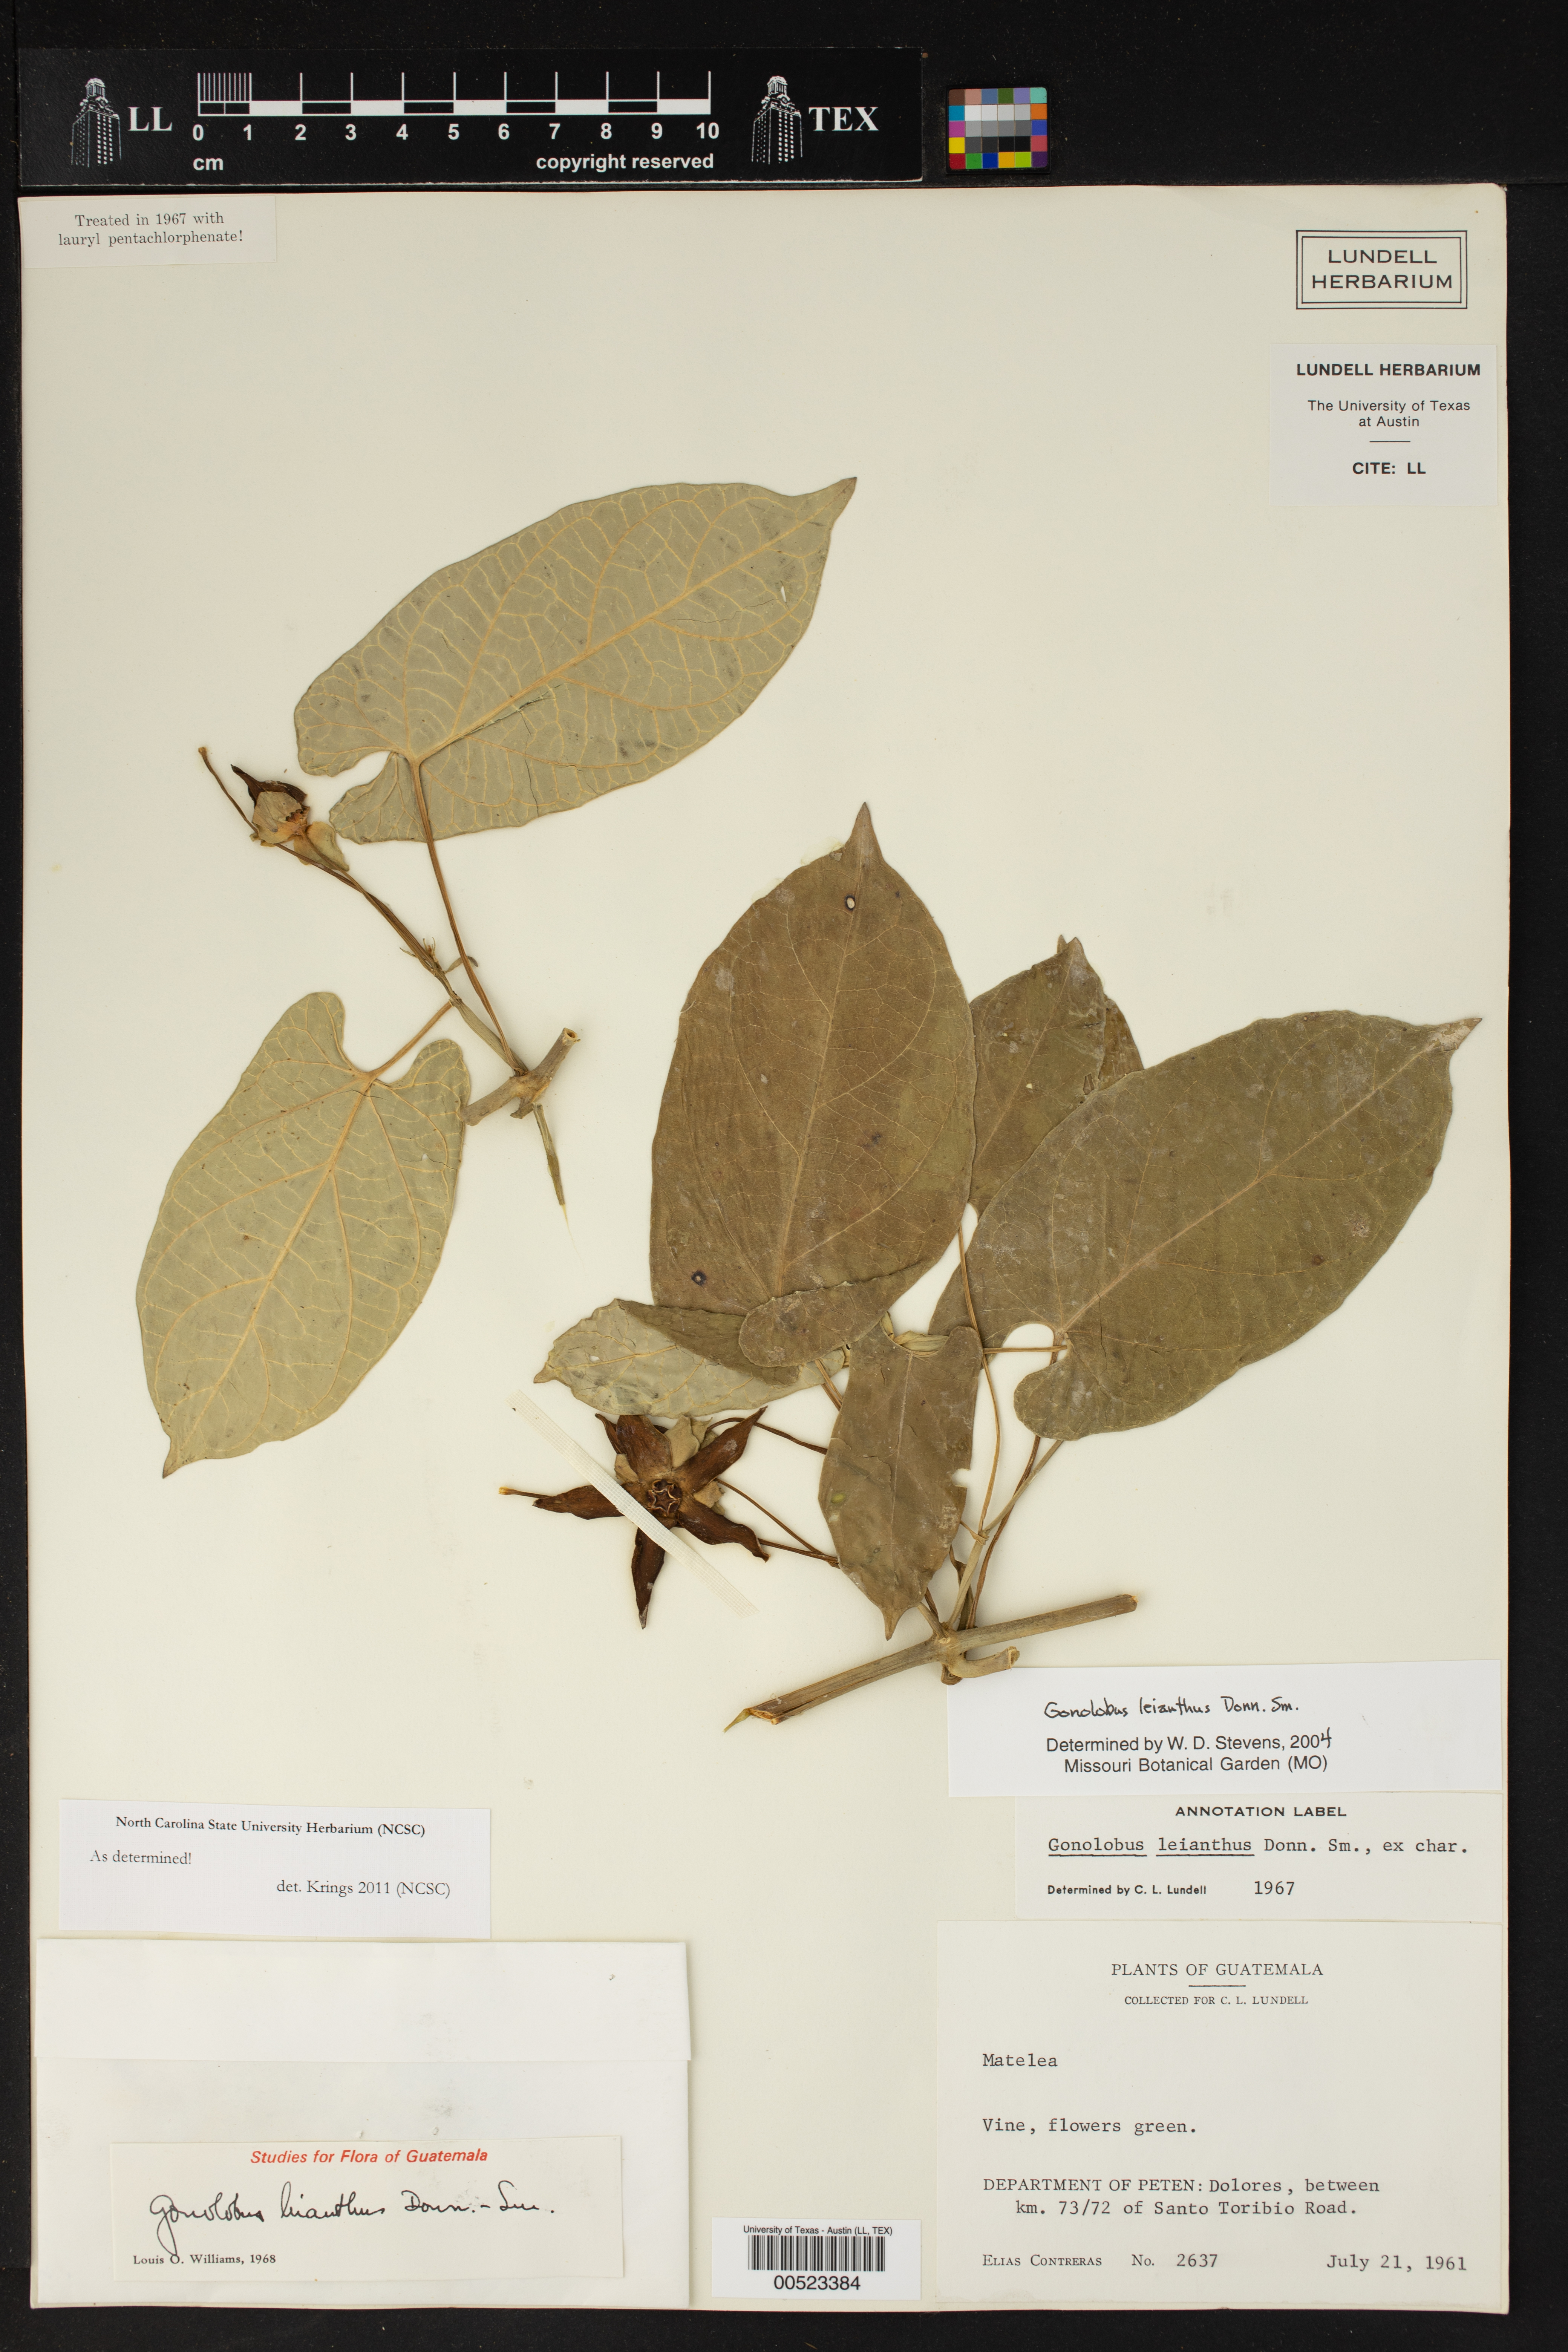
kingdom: Plantae
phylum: Tracheophyta
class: Magnoliopsida
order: Gentianales
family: Apocynaceae
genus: Gonolobus
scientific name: Gonolobus leianthus
